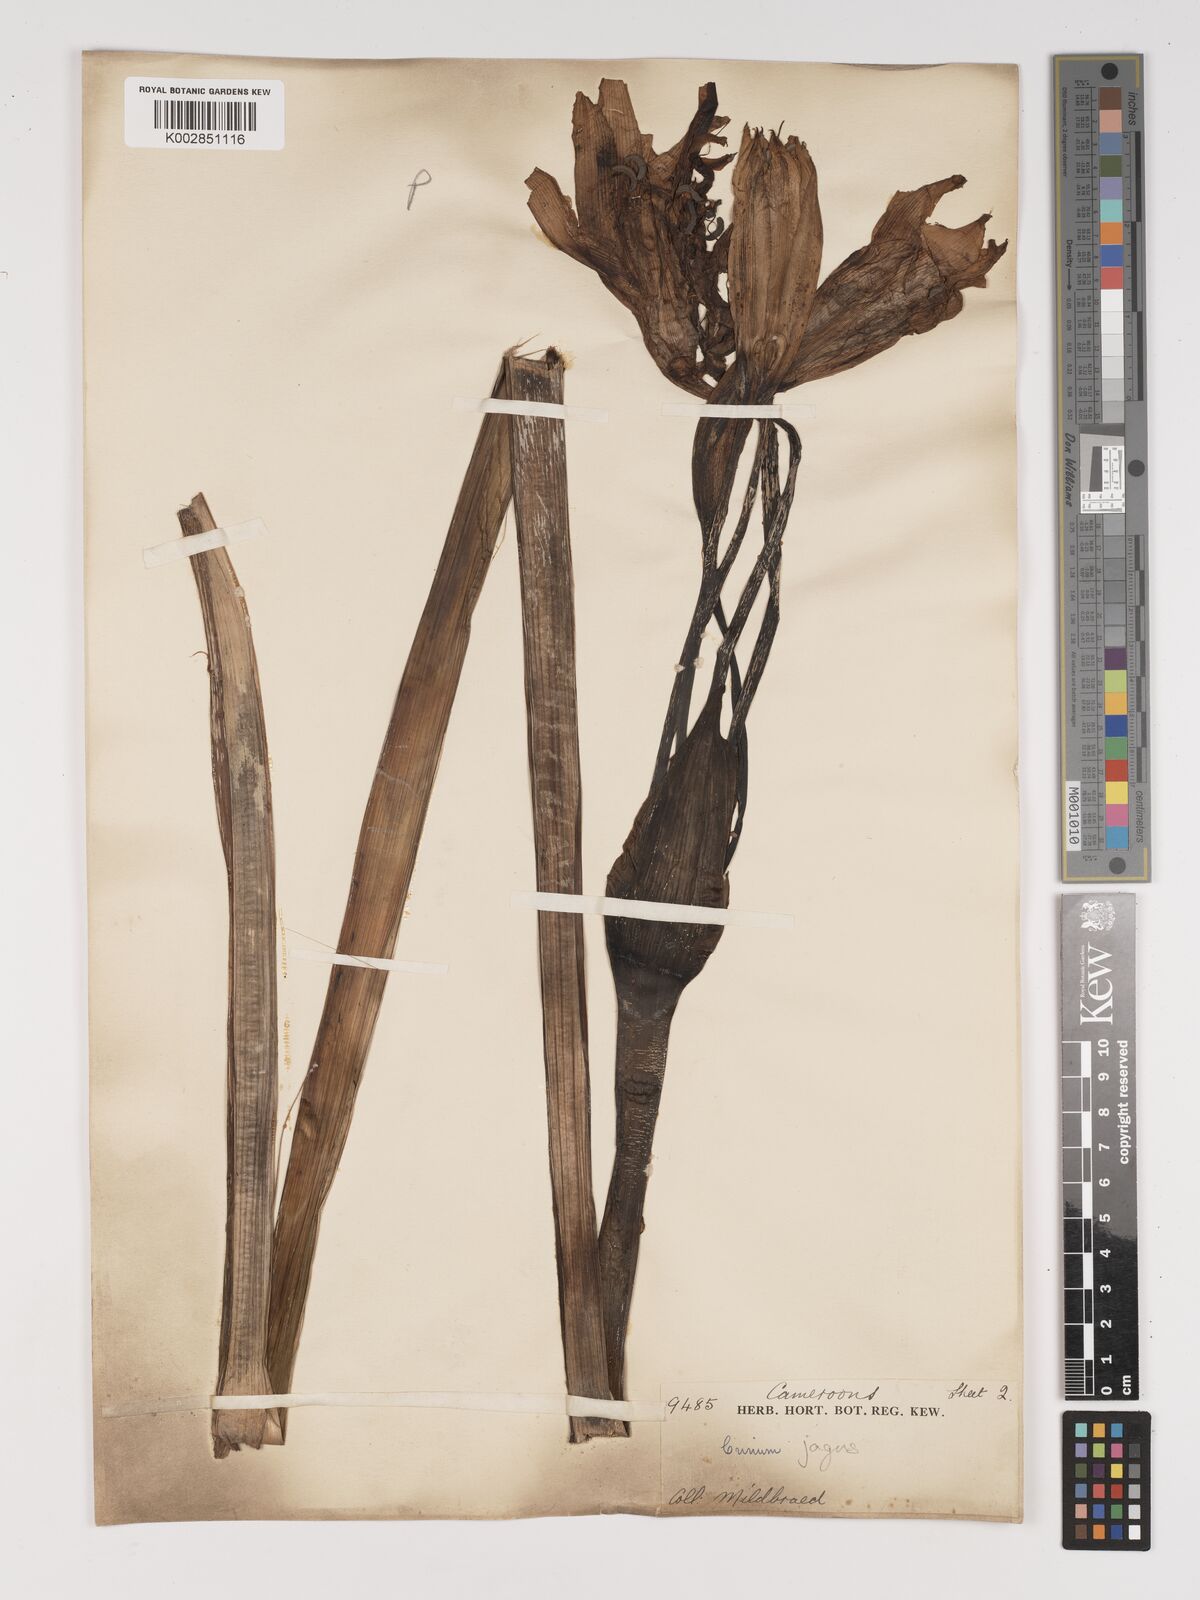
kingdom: Plantae
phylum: Tracheophyta
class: Liliopsida
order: Asparagales
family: Amaryllidaceae
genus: Crinum
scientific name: Crinum jagus
